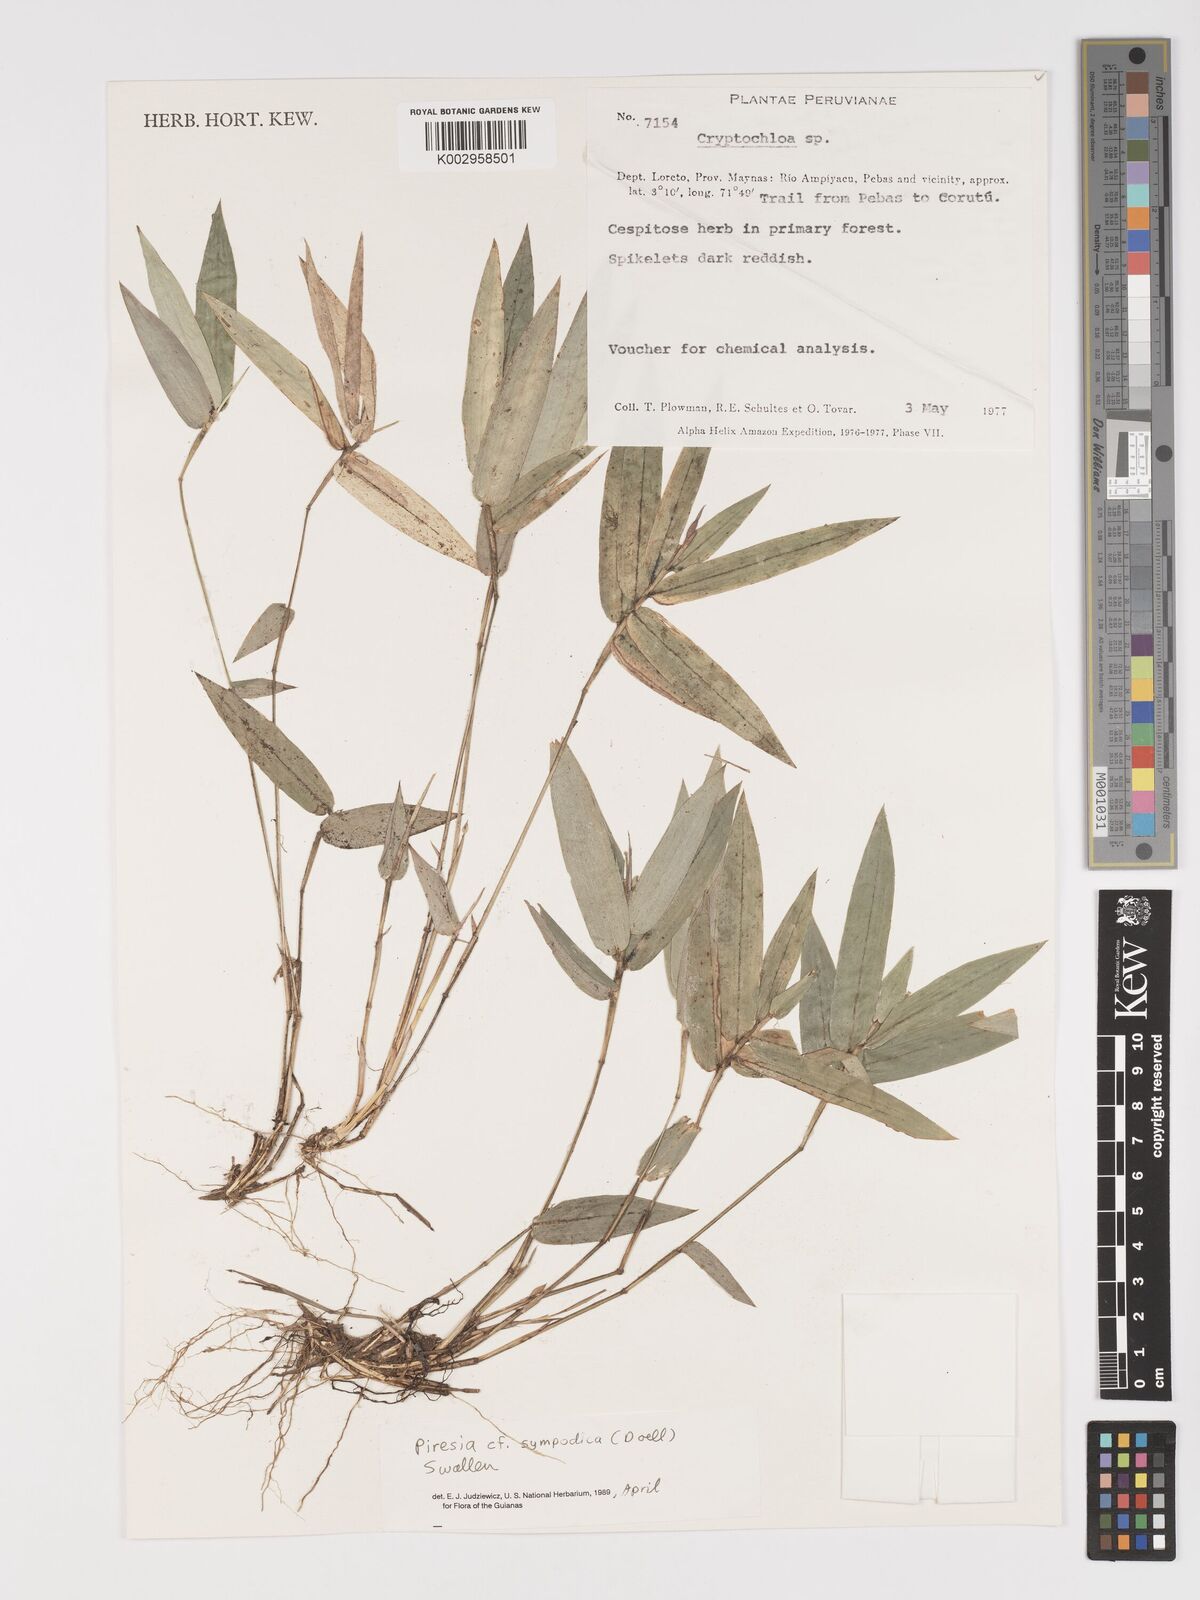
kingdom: Plantae
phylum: Tracheophyta
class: Liliopsida
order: Poales
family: Poaceae
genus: Piresia
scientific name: Piresia
